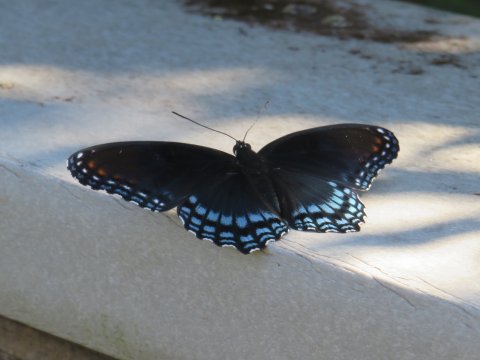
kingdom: Animalia
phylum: Arthropoda
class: Insecta
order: Lepidoptera
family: Nymphalidae
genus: Limenitis
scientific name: Limenitis arthemis
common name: Red-spotted Admiral
